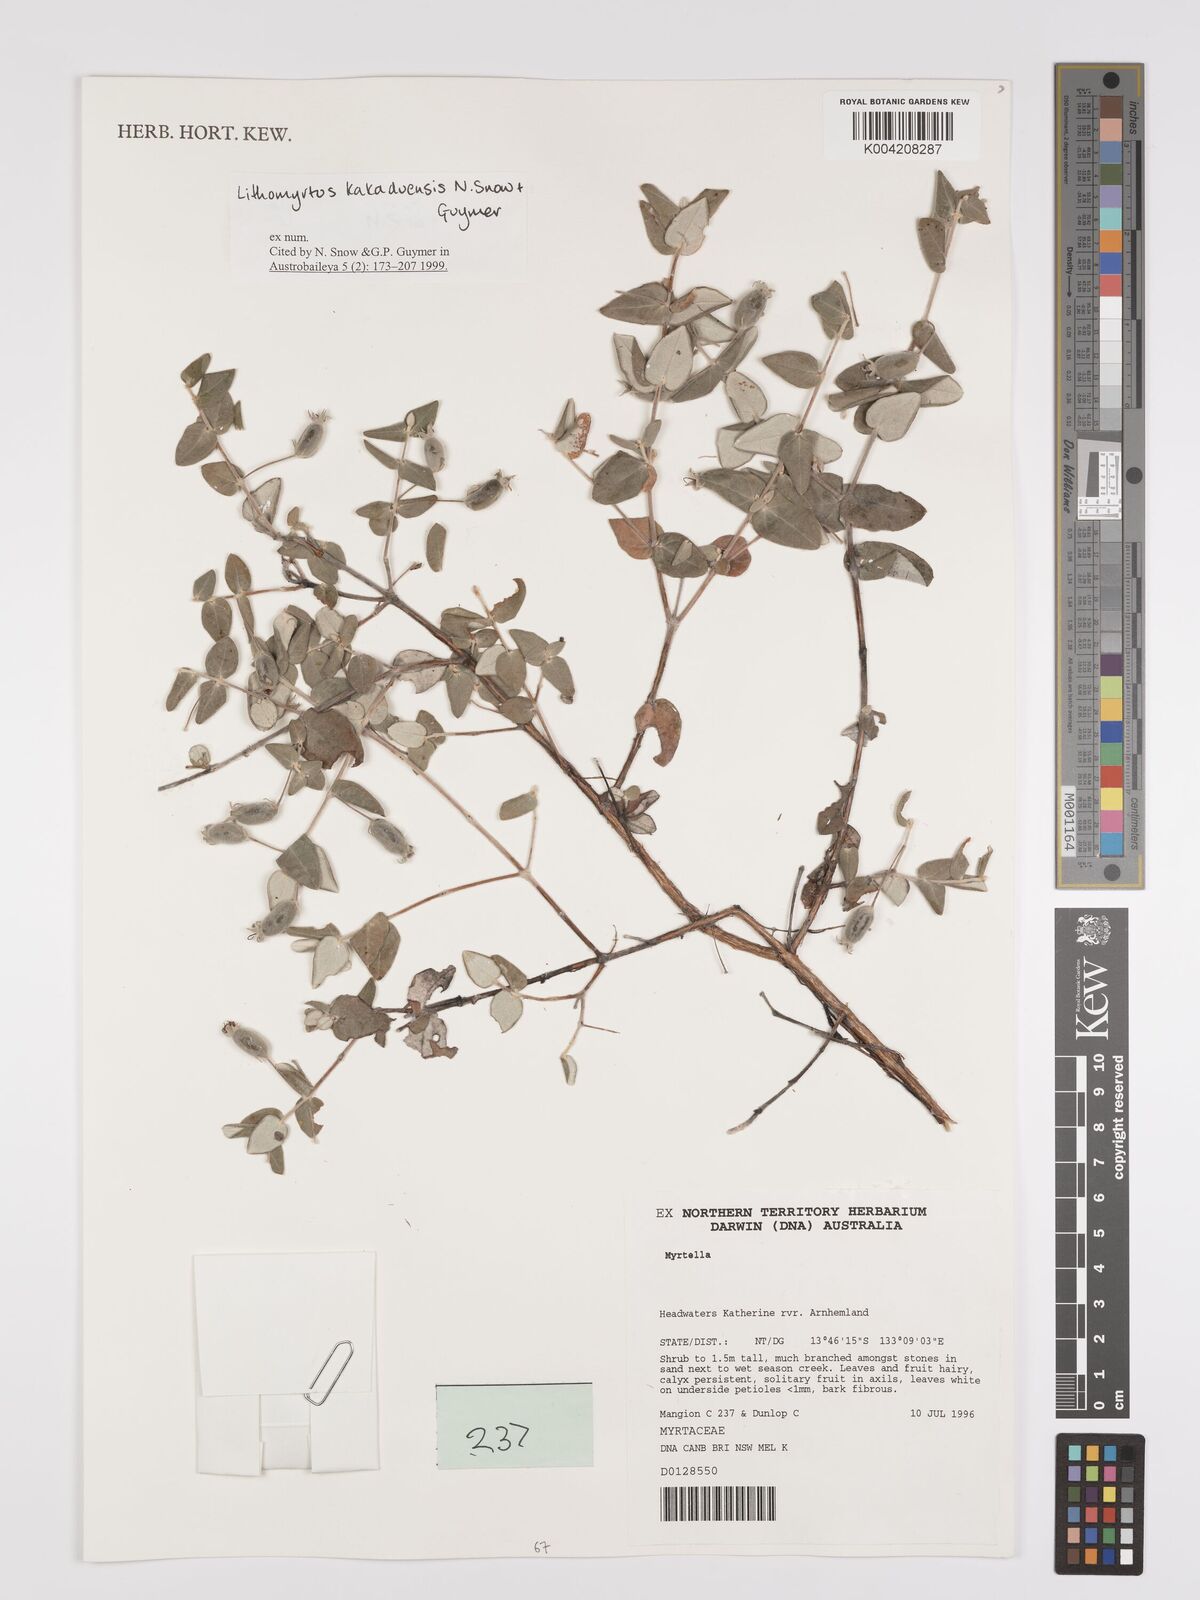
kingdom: Plantae
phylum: Tracheophyta
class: Magnoliopsida
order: Myrtales
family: Myrtaceae
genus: Lithomyrtus
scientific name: Lithomyrtus kakaduensis
